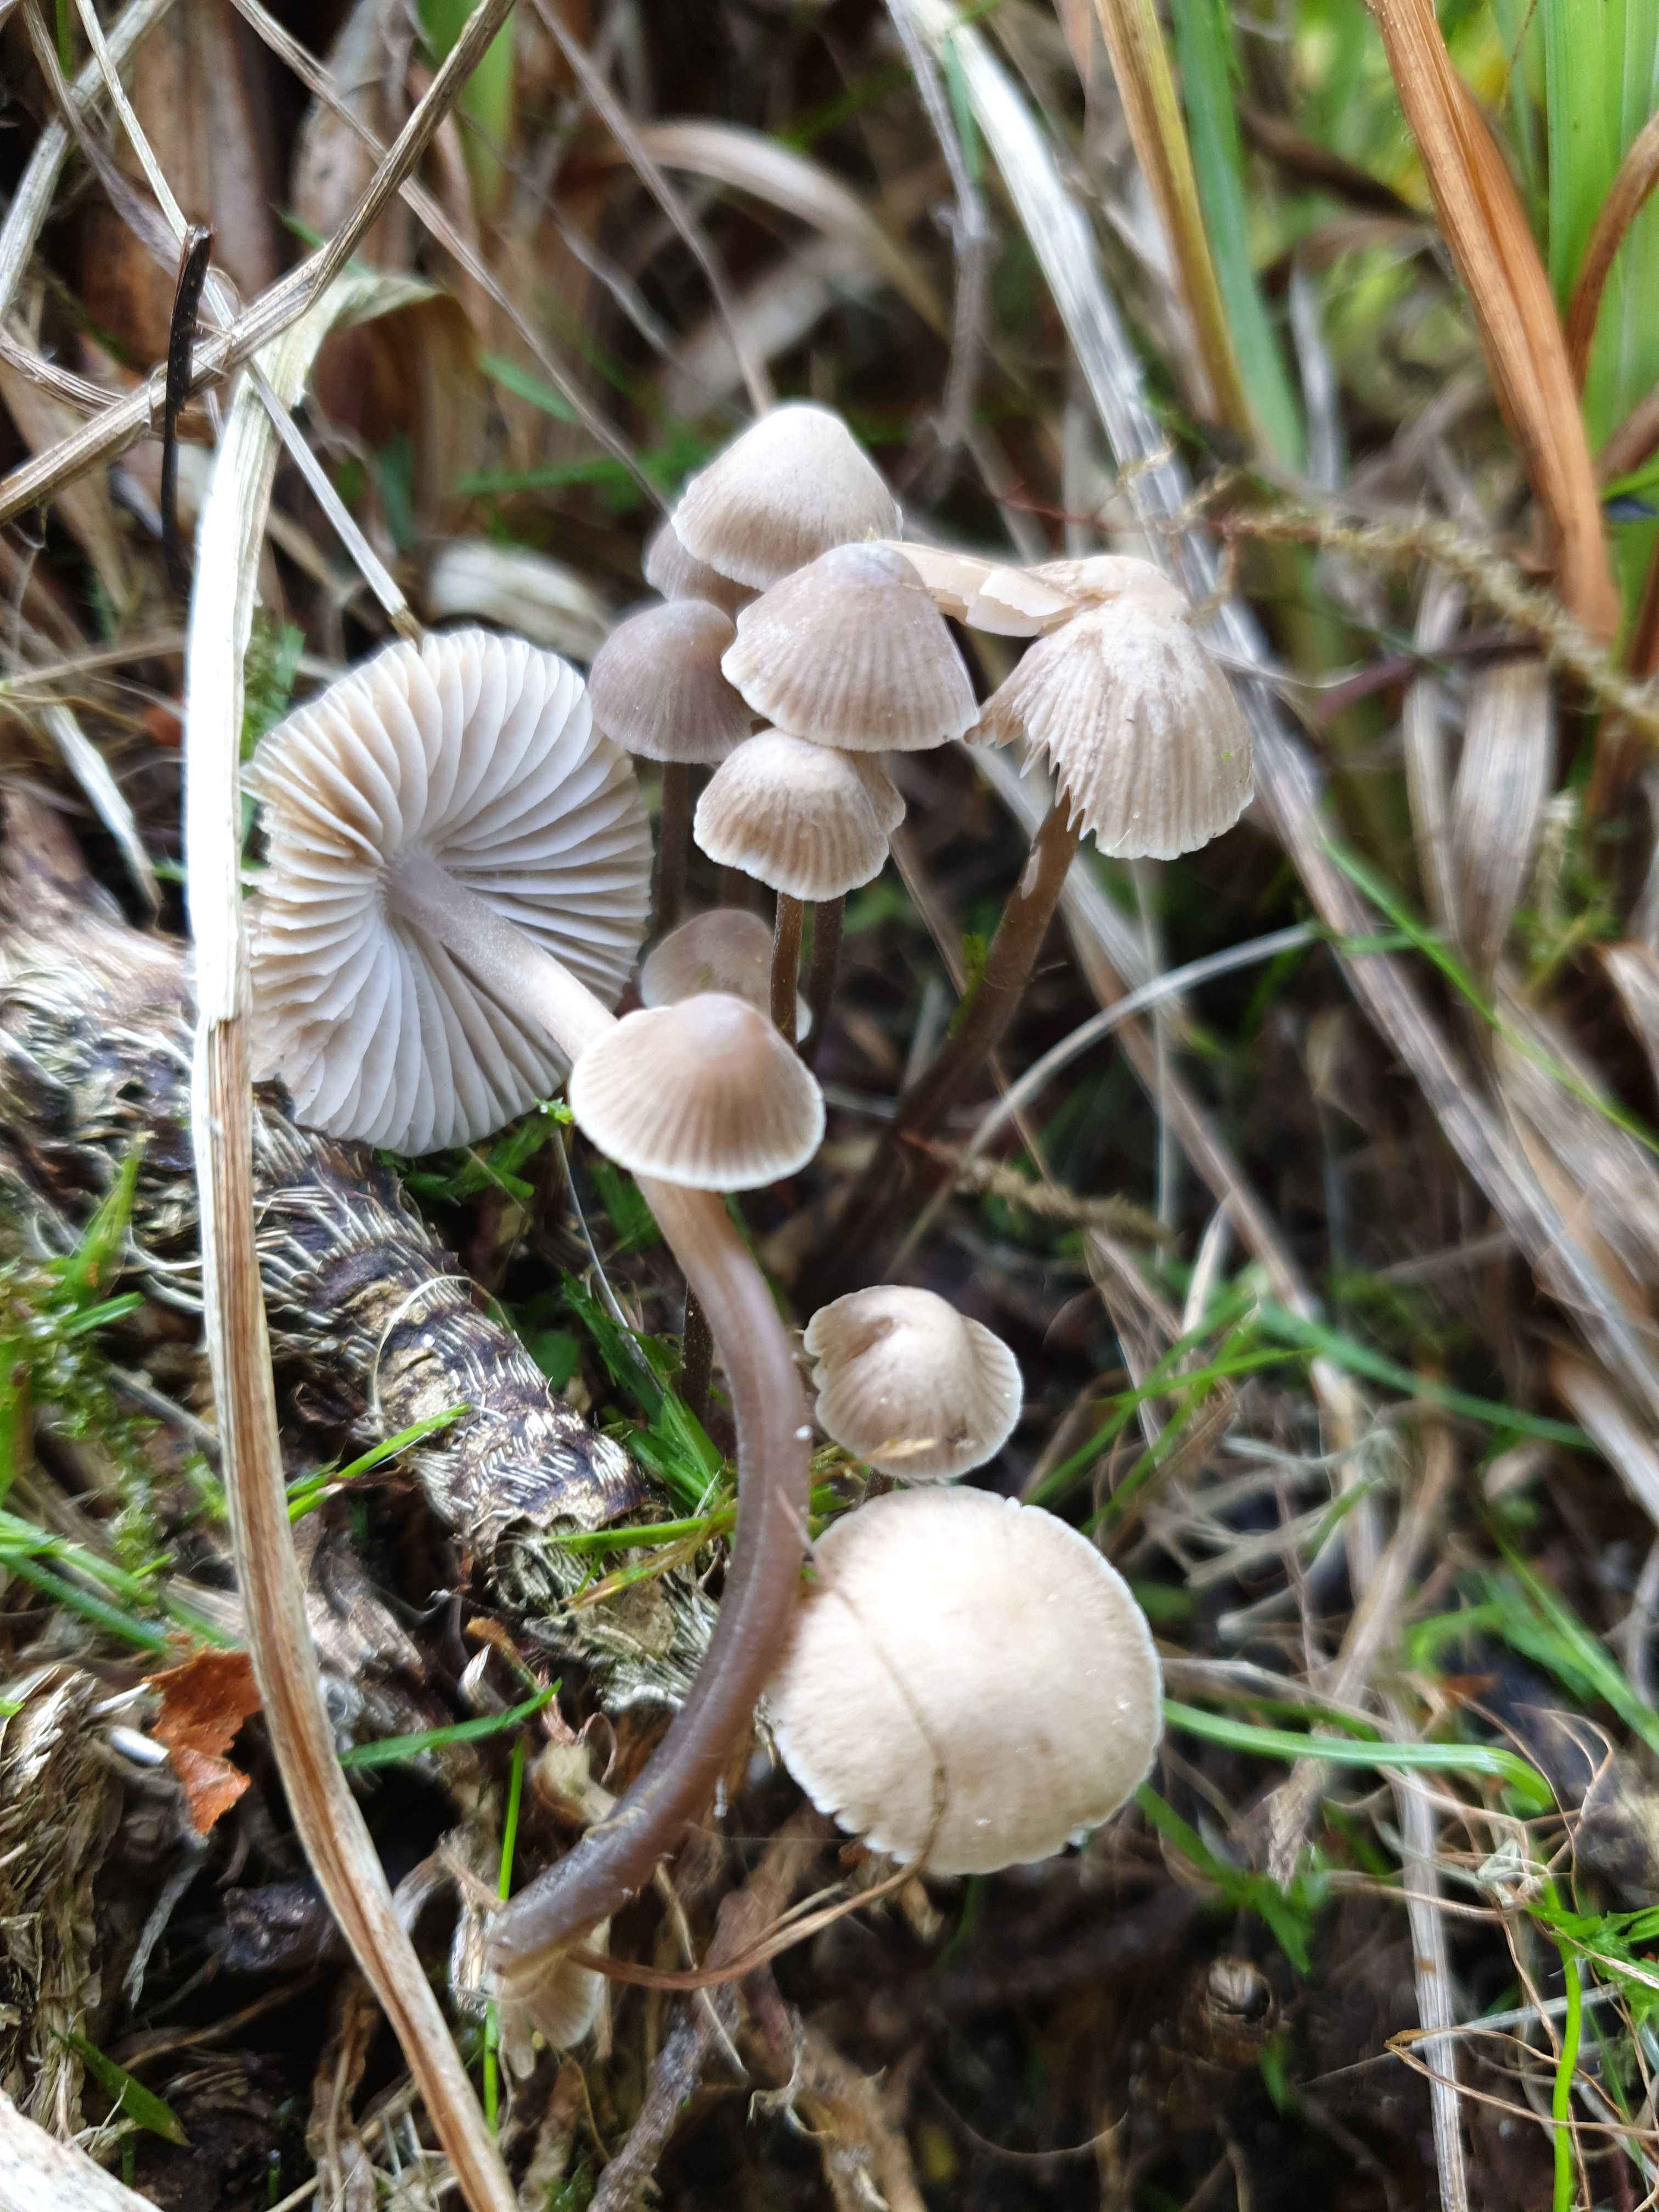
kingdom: Fungi
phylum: Basidiomycota
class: Agaricomycetes
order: Agaricales
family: Mycenaceae
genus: Mycena
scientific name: Mycena
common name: huesvamp
